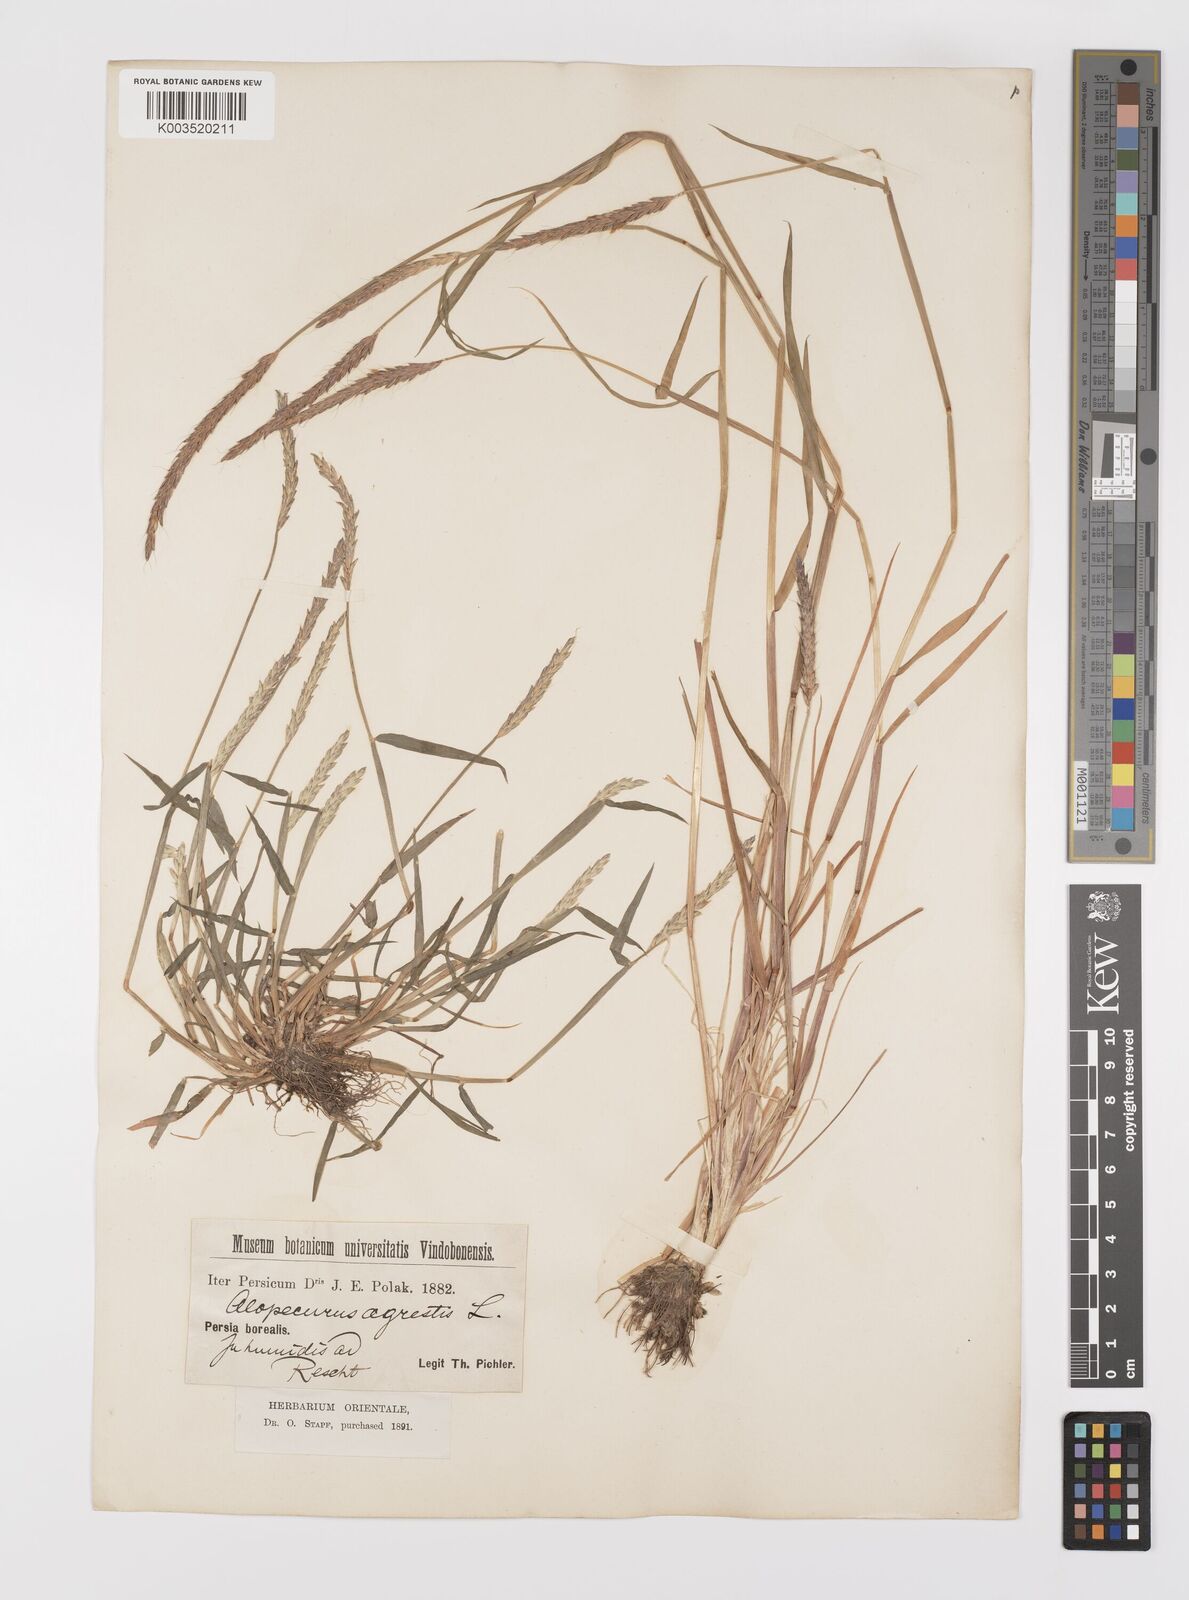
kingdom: Plantae
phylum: Tracheophyta
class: Liliopsida
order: Poales
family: Poaceae
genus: Alopecurus
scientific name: Alopecurus myosuroides
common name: Black-grass
